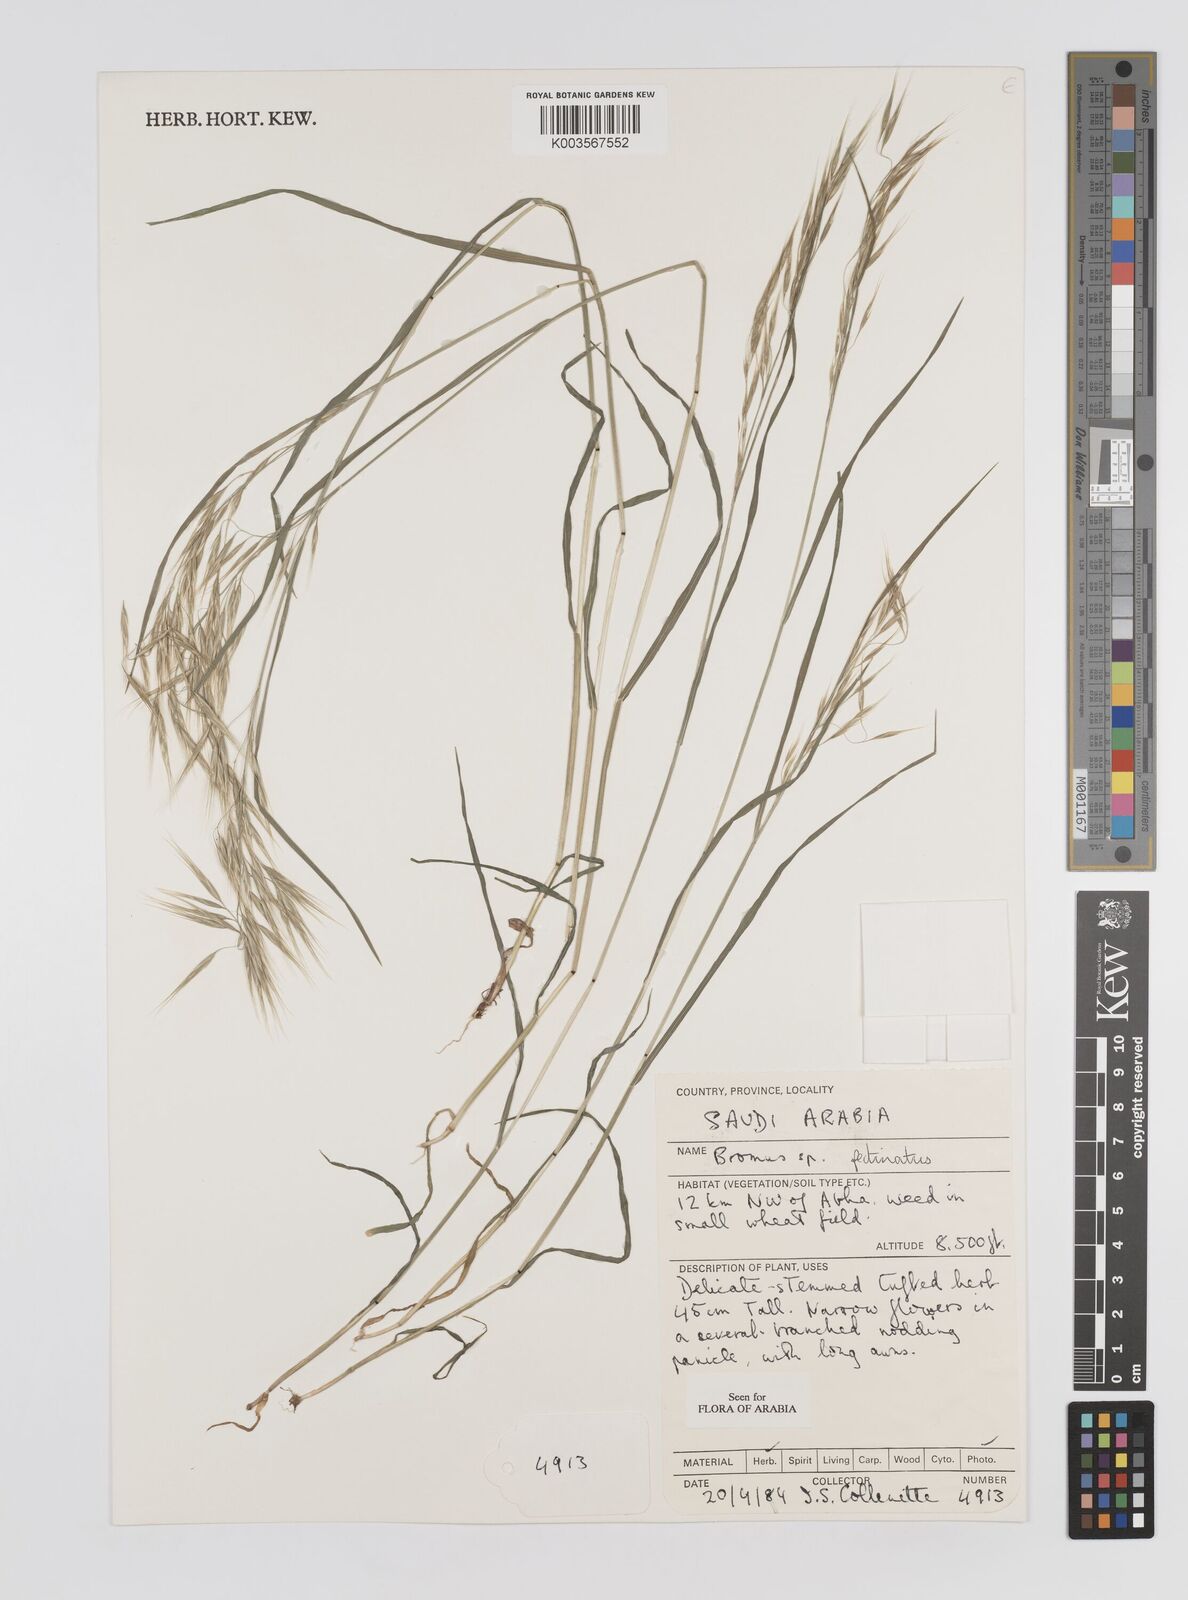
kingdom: Plantae
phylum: Tracheophyta
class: Liliopsida
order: Poales
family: Poaceae
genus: Bromus
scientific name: Bromus pectinatus
